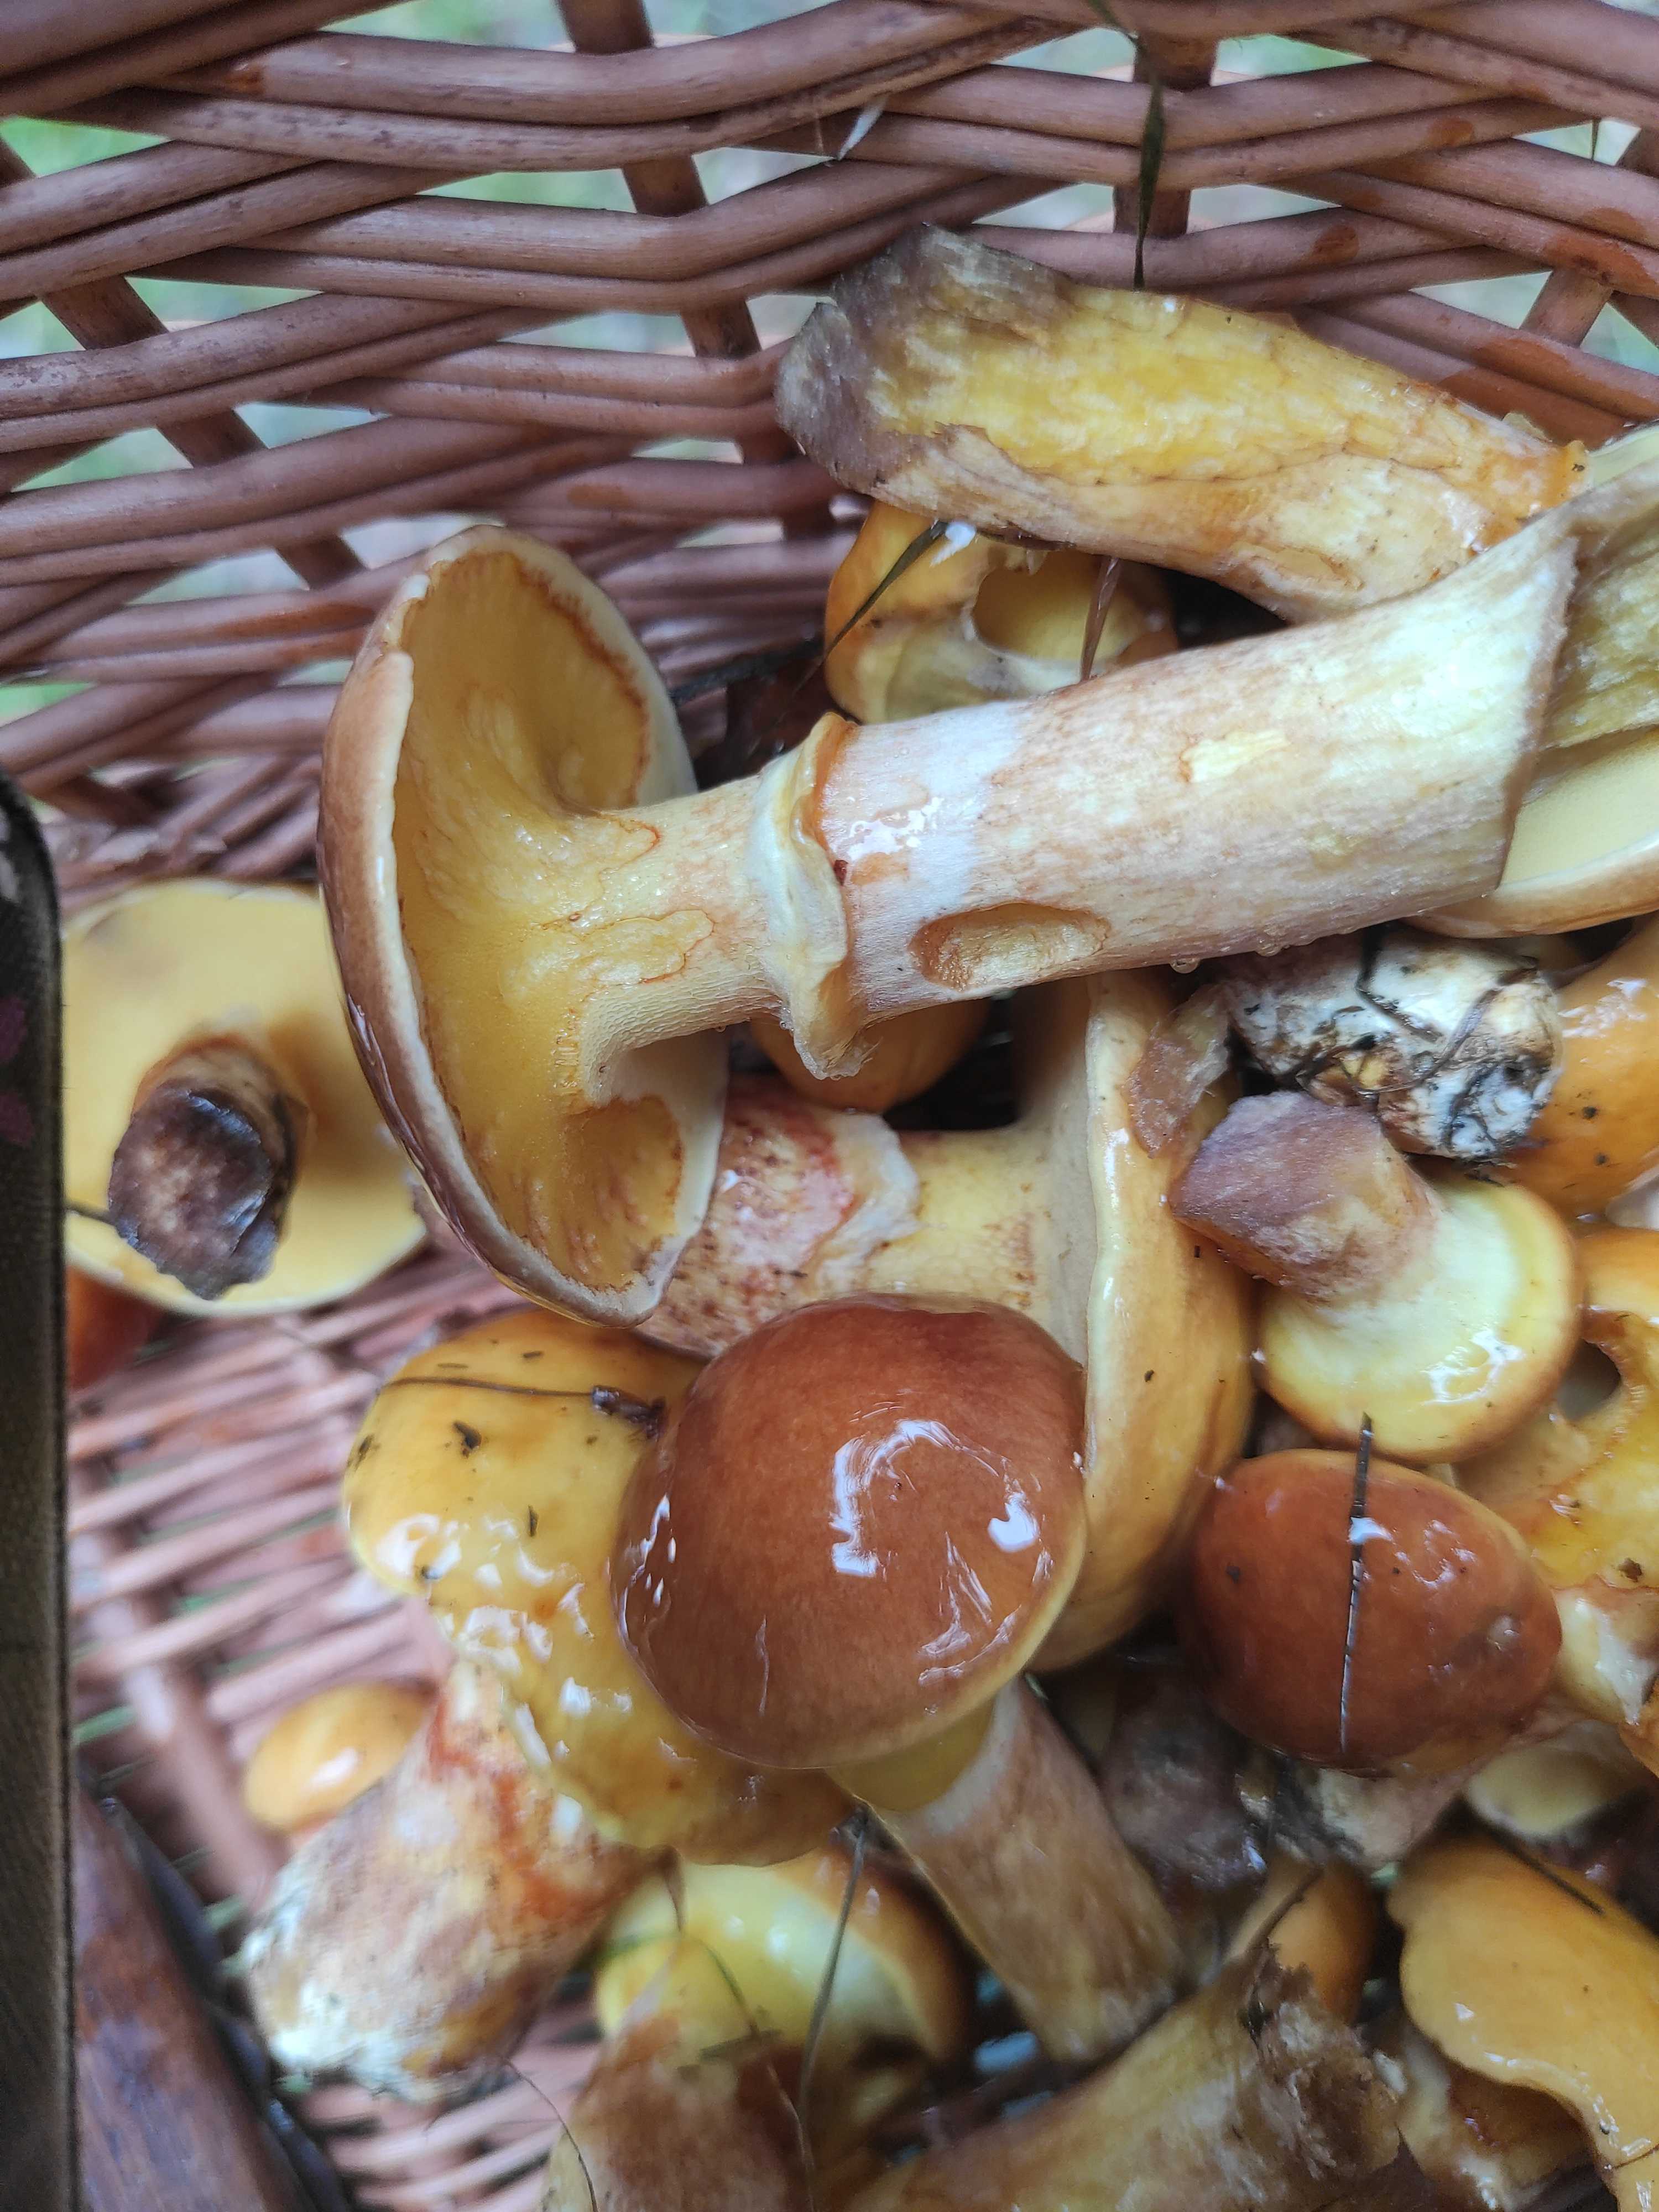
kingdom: Fungi
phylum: Basidiomycota
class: Agaricomycetes
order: Boletales
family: Suillaceae
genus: Suillus
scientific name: Suillus grevillei
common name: lærke-slimrørhat
